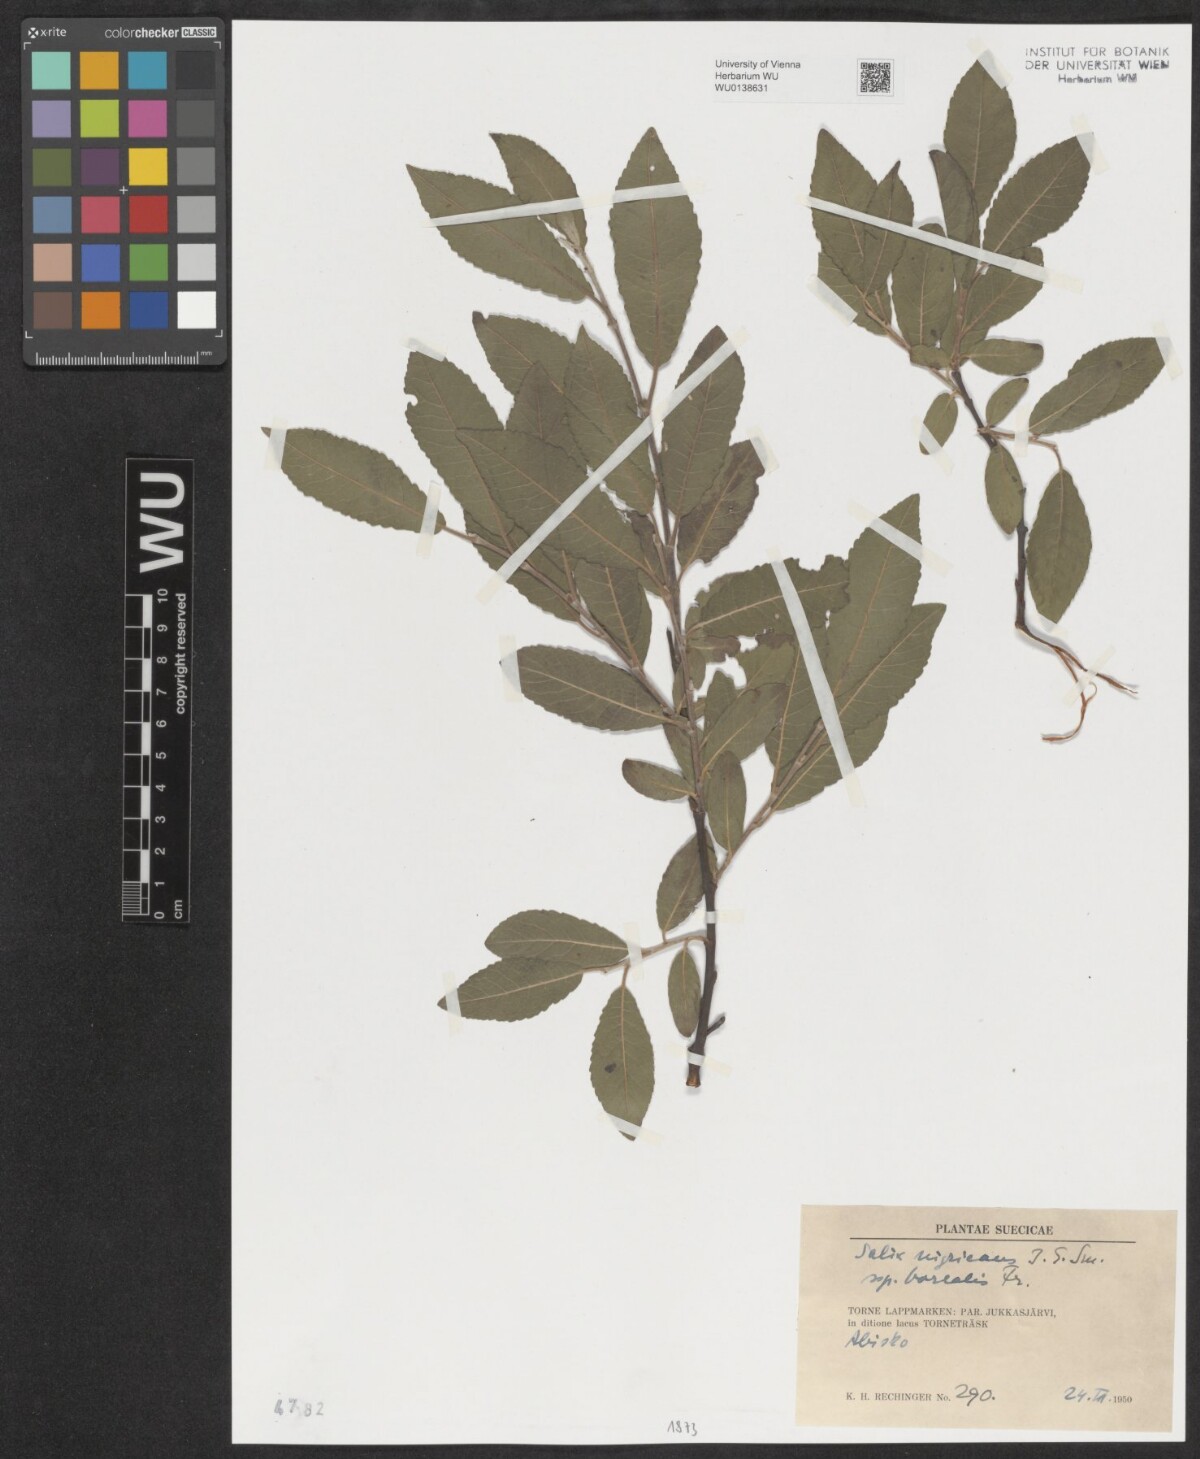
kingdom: Plantae
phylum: Tracheophyta
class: Magnoliopsida
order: Malpighiales
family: Salicaceae
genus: Salix
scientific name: Salix myrsinifolia
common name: Dark-leaved willow
